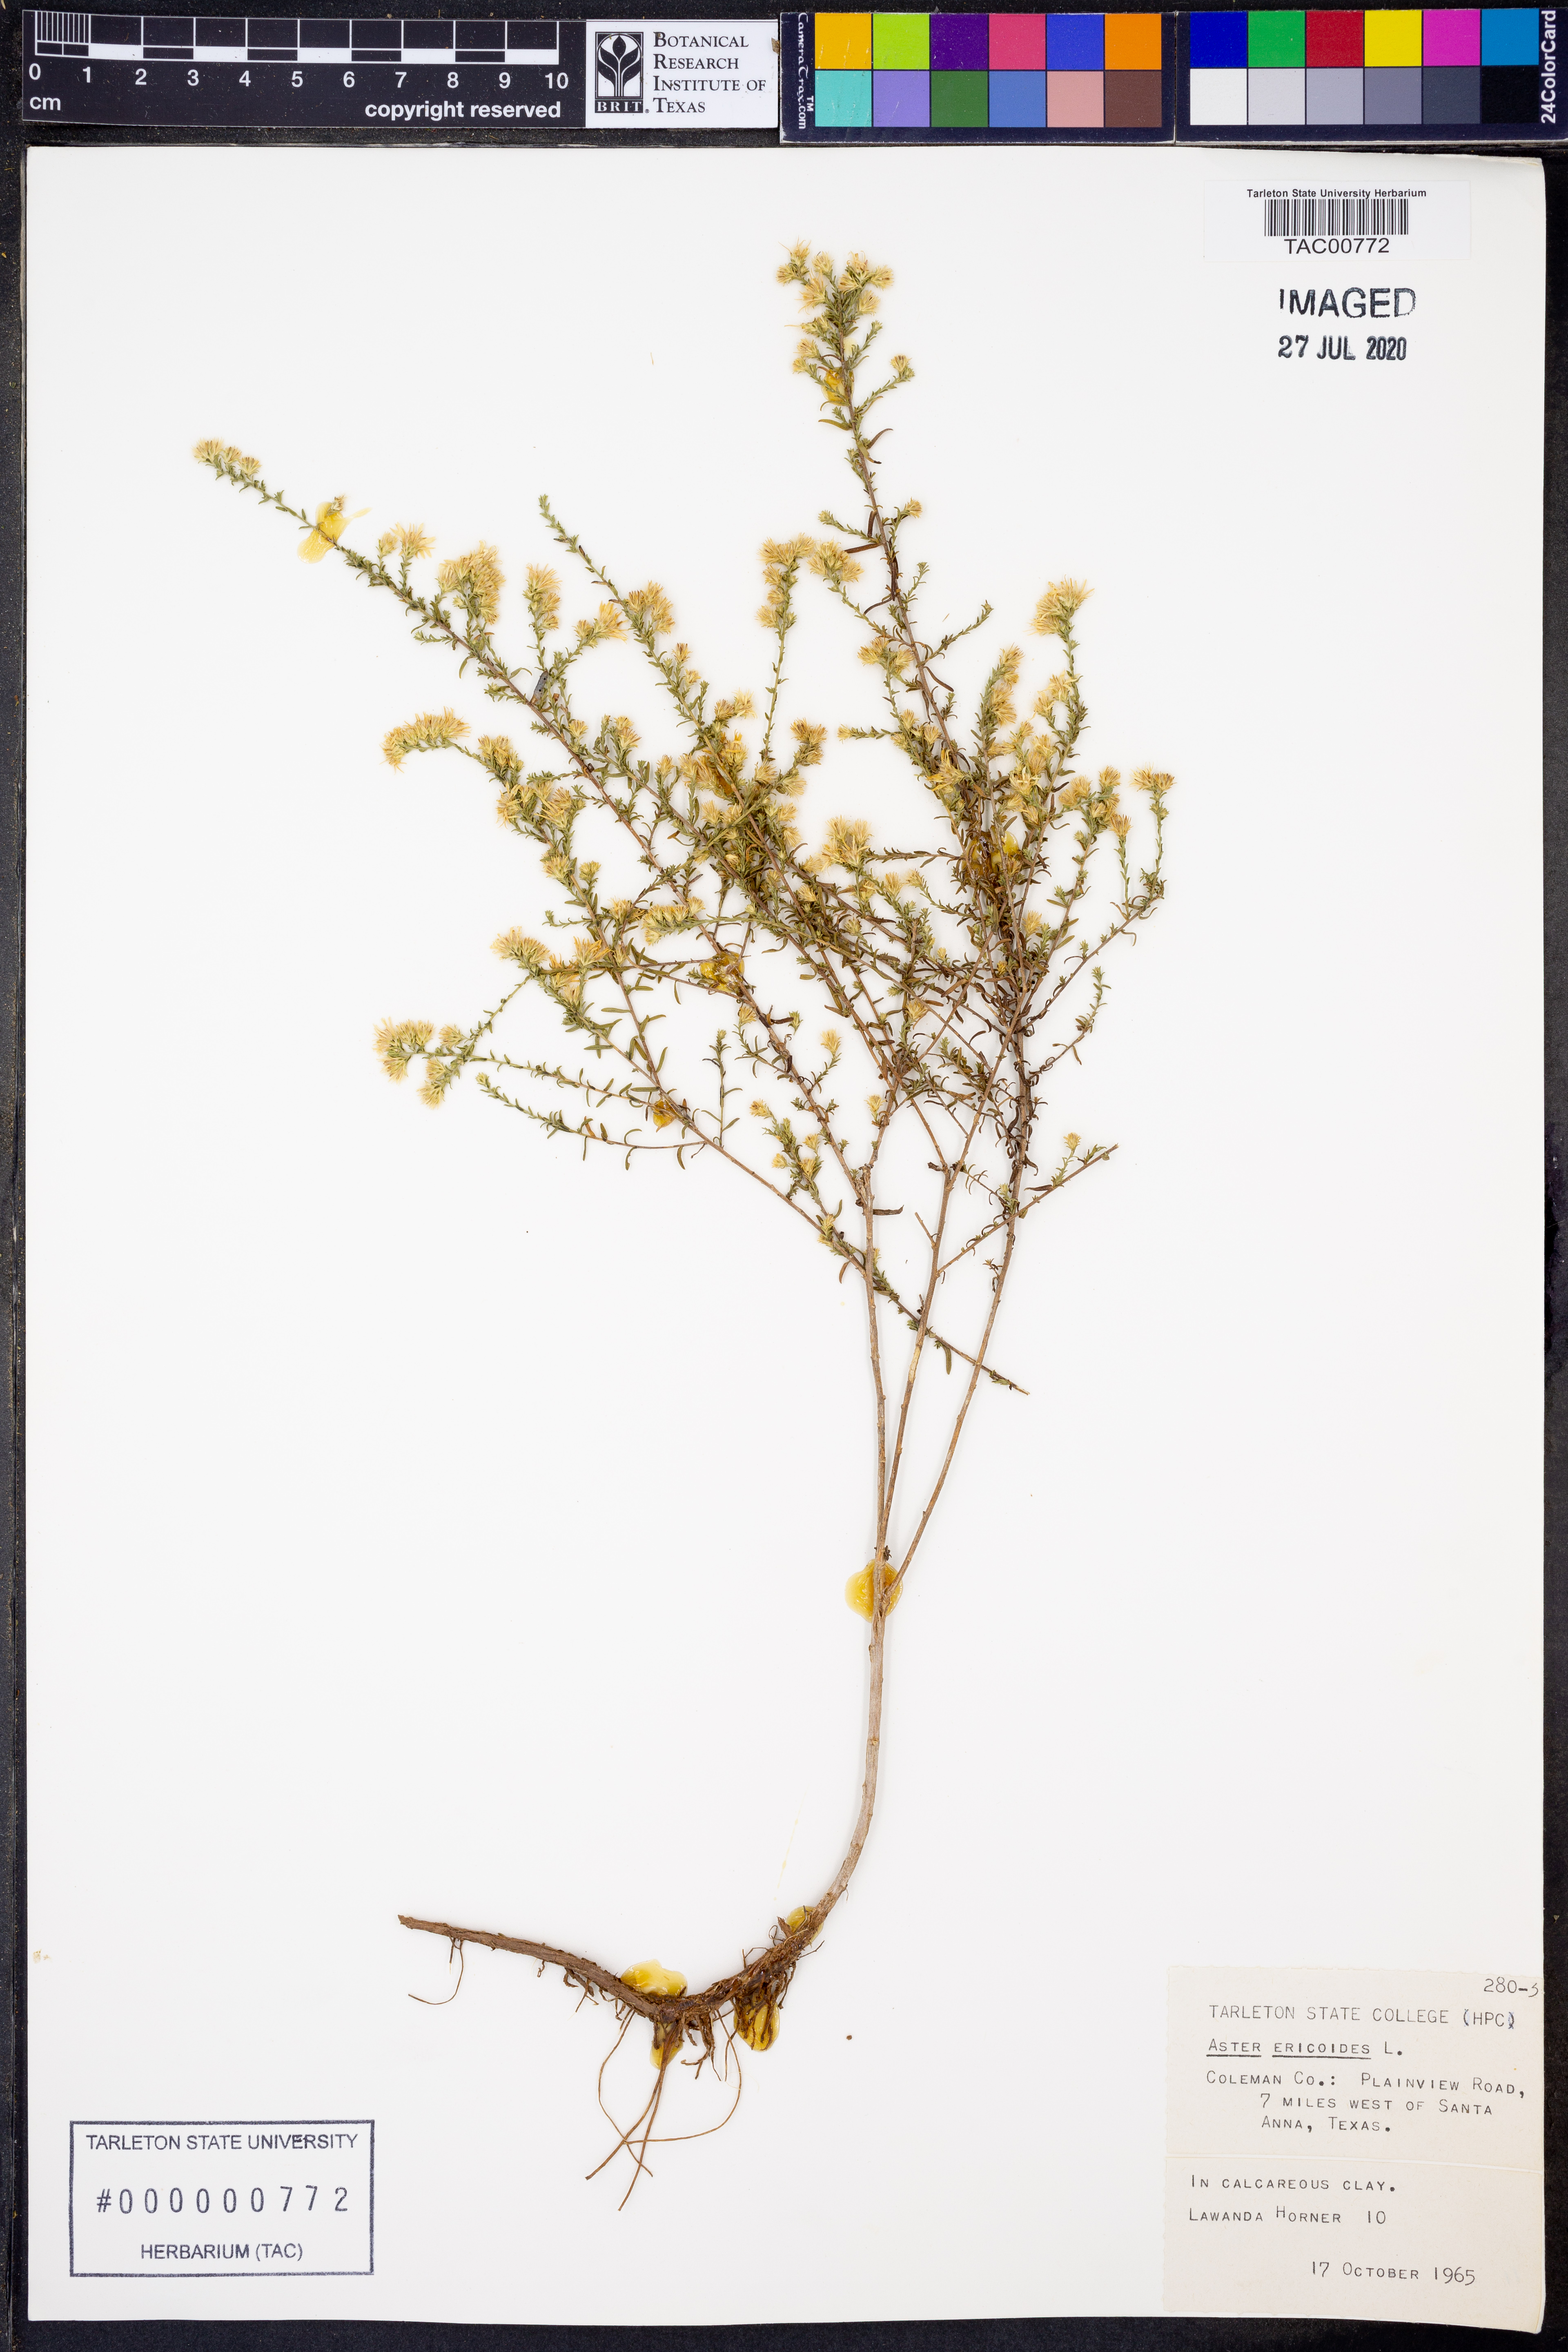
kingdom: Plantae
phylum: Tracheophyta
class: Magnoliopsida
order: Asterales
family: Asteraceae
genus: Symphyotrichum
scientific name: Symphyotrichum ericoides
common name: Heath aster
